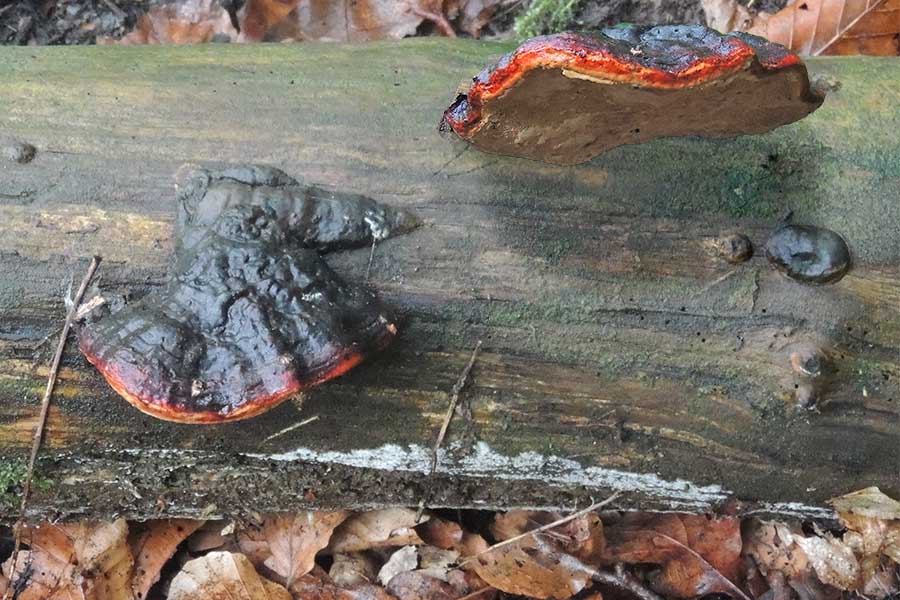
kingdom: Fungi
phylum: Basidiomycota
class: Agaricomycetes
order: Polyporales
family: Fomitopsidaceae
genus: Fomitopsis
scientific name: Fomitopsis pinicola
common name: randbæltet hovporesvamp
